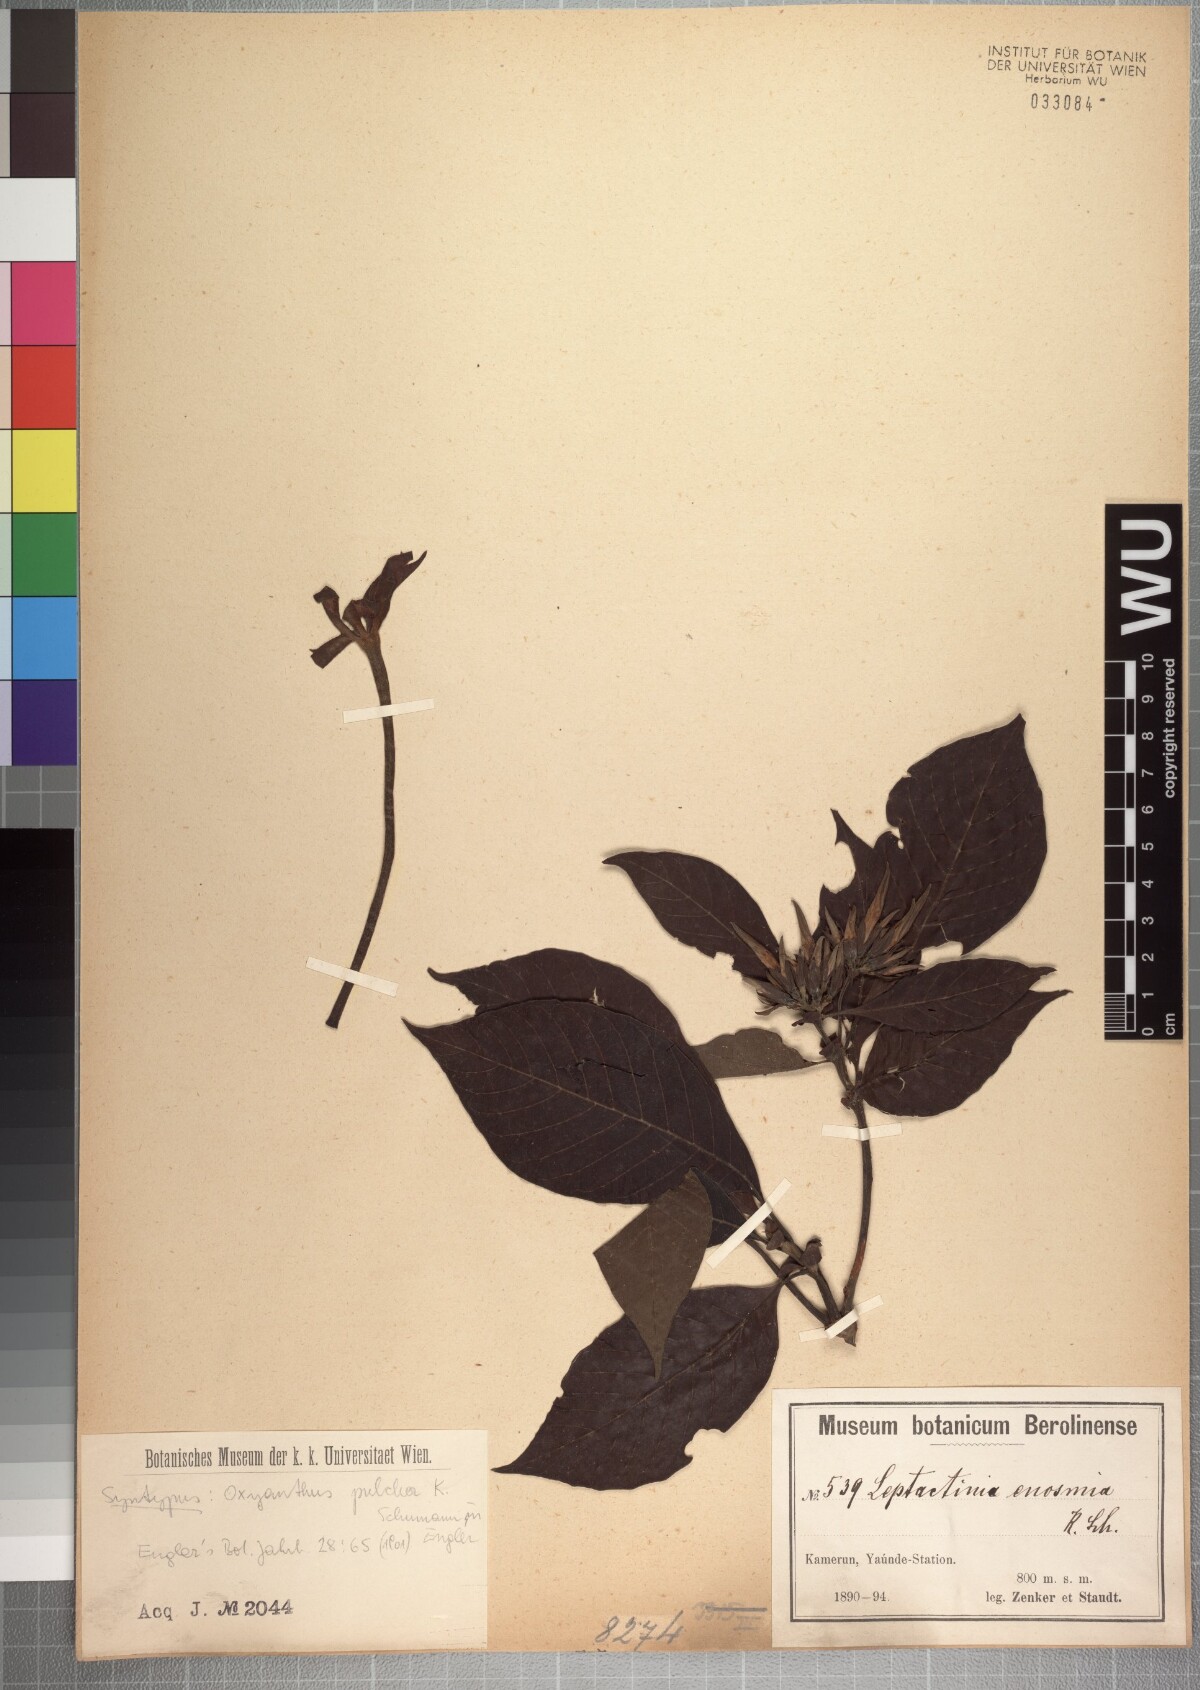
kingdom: Plantae
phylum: Tracheophyta
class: Magnoliopsida
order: Gentianales
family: Rubiaceae
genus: Leptactina
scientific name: Leptactina involucrata
